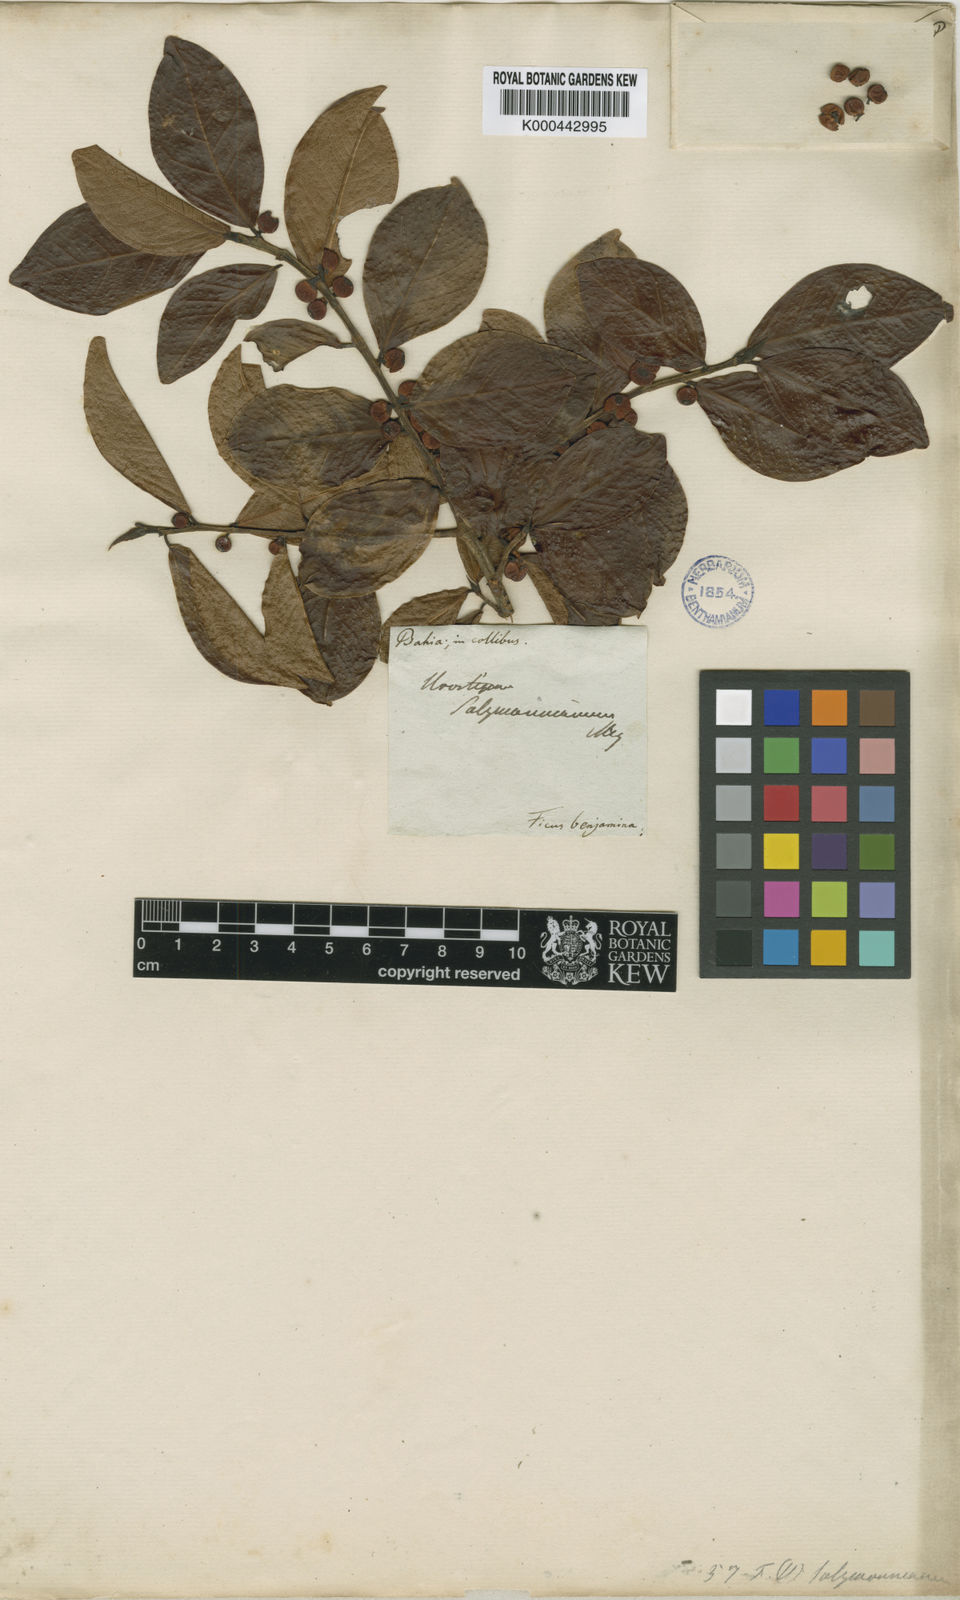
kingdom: Plantae
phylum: Tracheophyta
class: Magnoliopsida
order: Rosales
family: Moraceae
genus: Ficus
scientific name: Ficus salzmanniana
